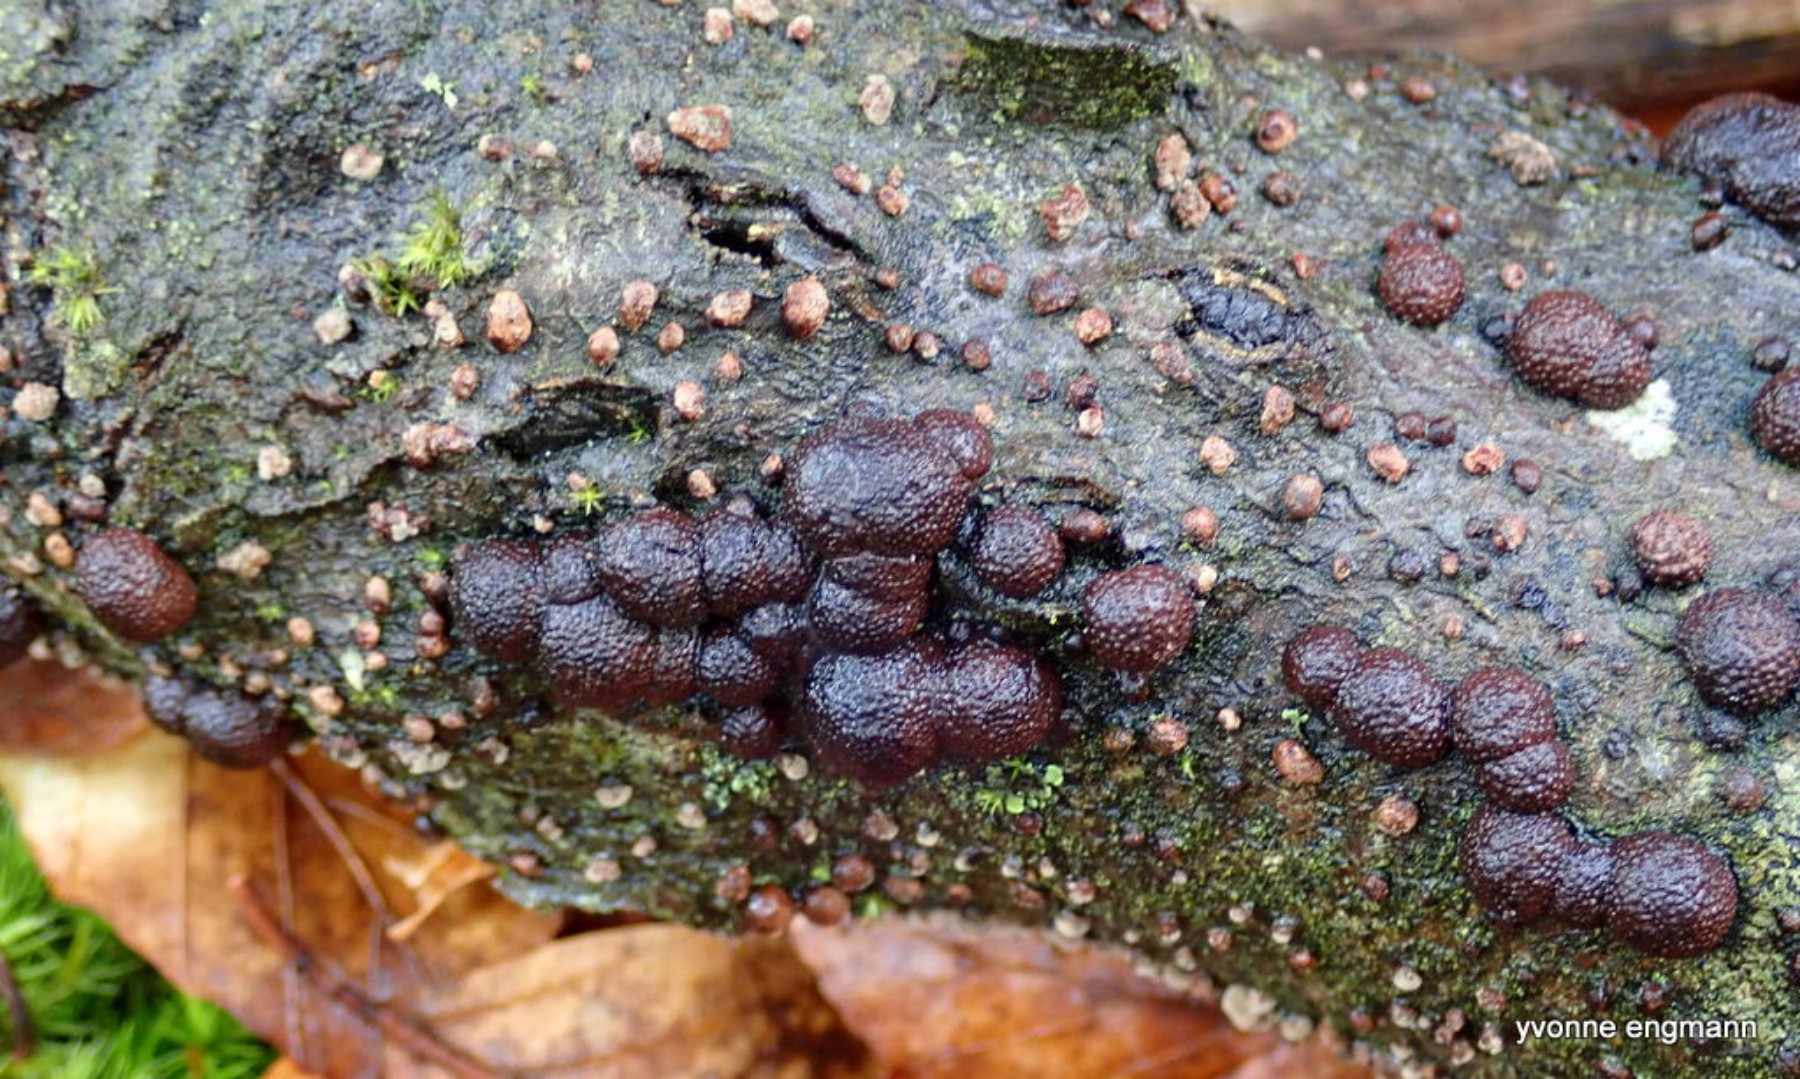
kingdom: Fungi
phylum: Ascomycota
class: Sordariomycetes
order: Xylariales
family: Hypoxylaceae
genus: Hypoxylon
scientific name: Hypoxylon fragiforme
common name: kuljordbær
